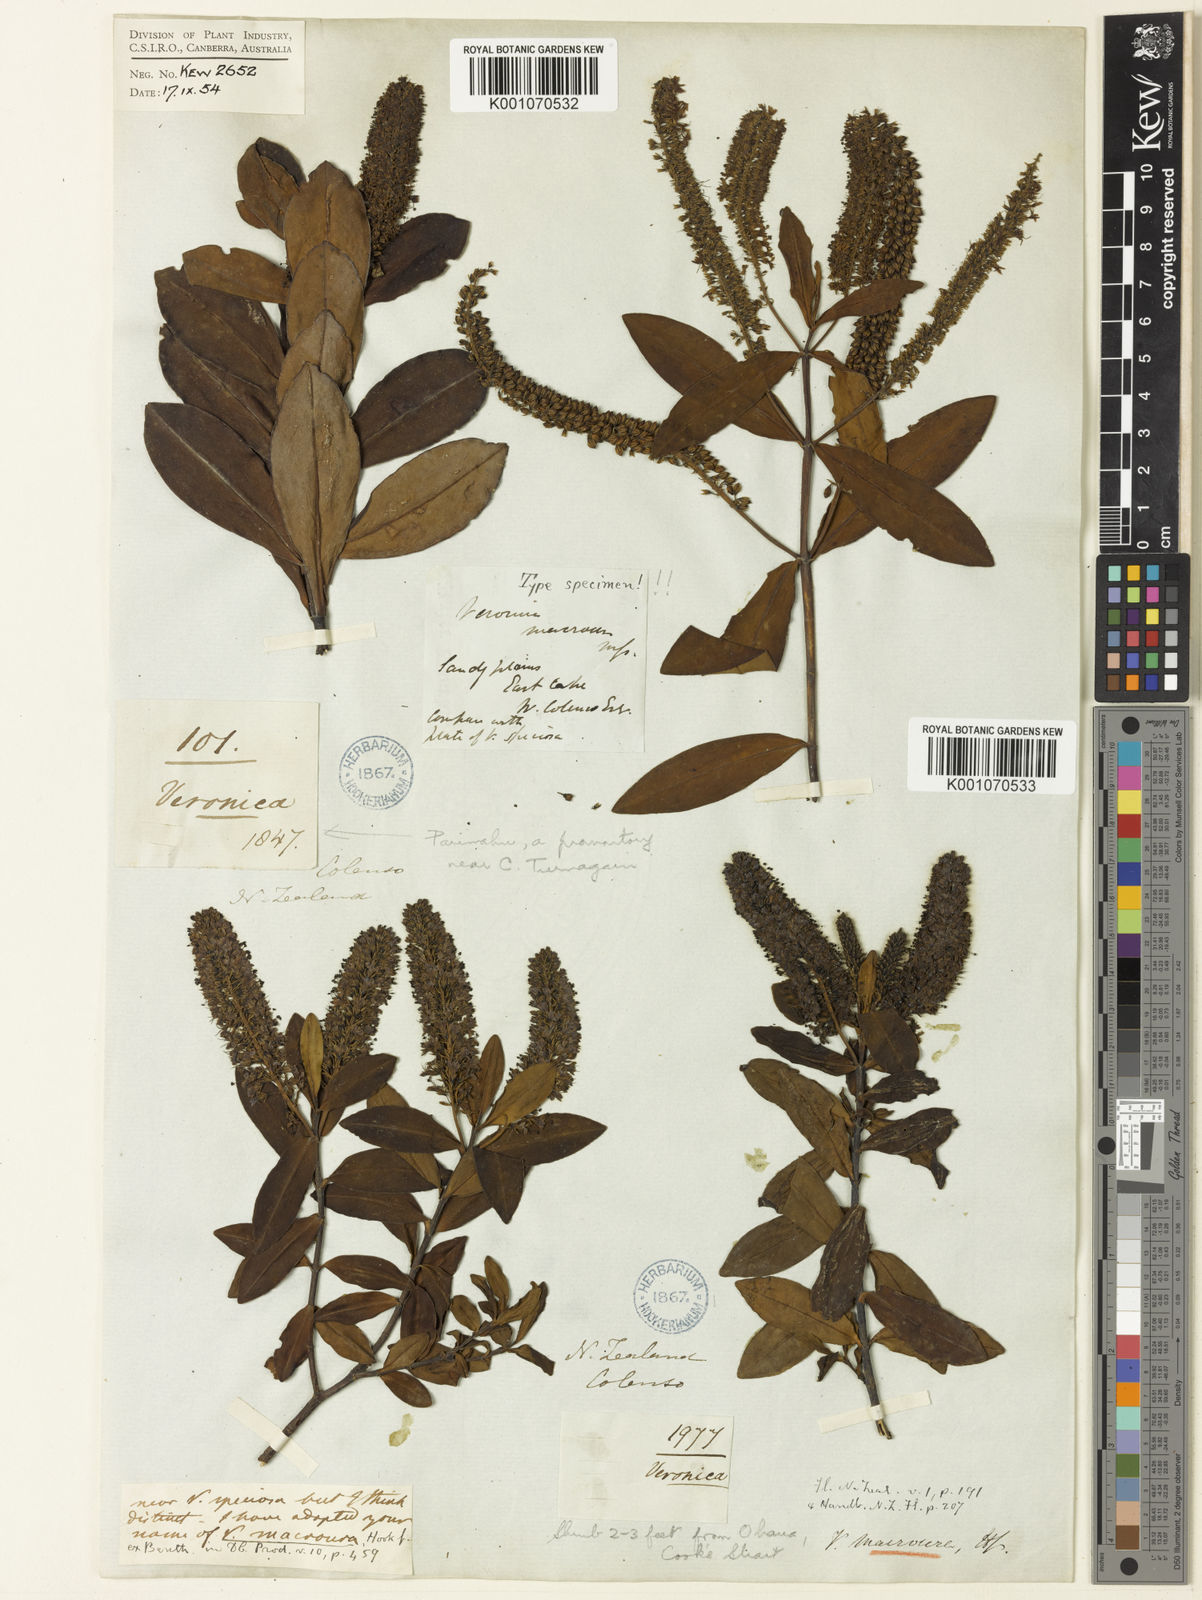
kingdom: Plantae
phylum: Tracheophyta
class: Magnoliopsida
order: Lamiales
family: Plantaginaceae
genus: Veronica
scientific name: Veronica
